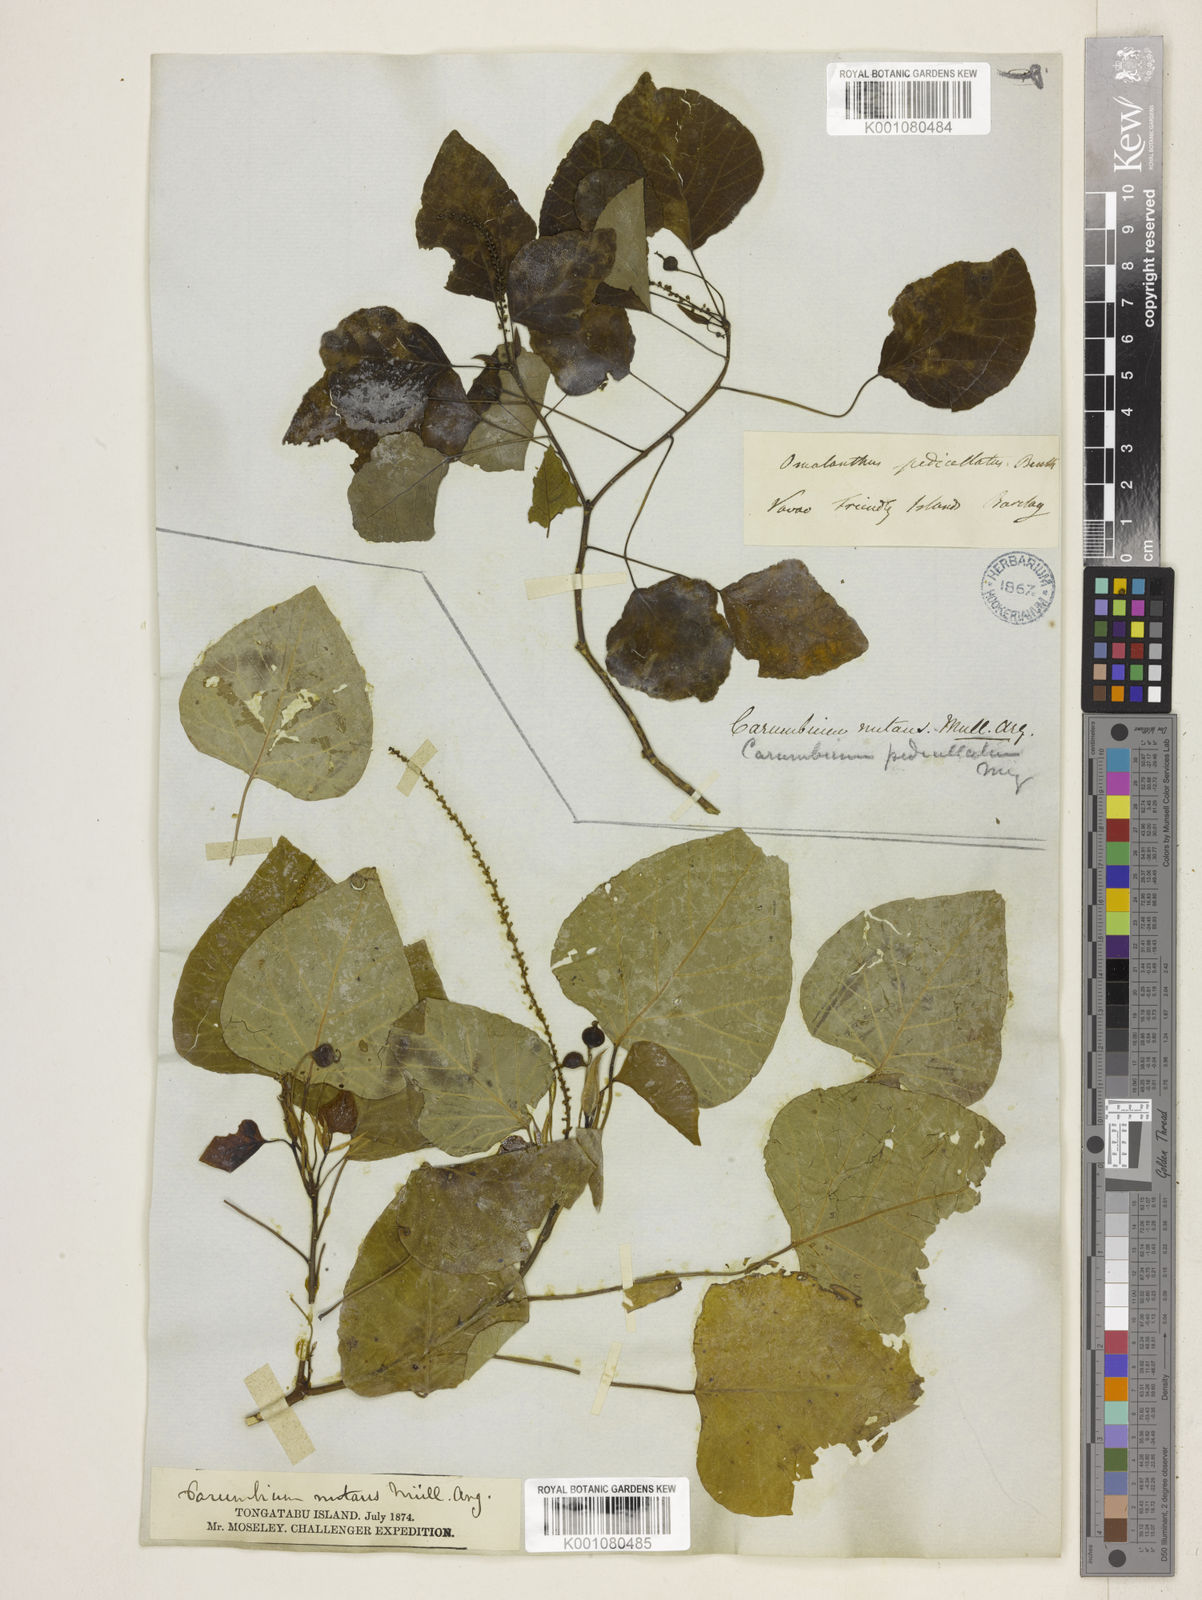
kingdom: Plantae
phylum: Tracheophyta
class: Magnoliopsida
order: Malpighiales
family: Euphorbiaceae
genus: Homalanthus
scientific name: Homalanthus nutans
